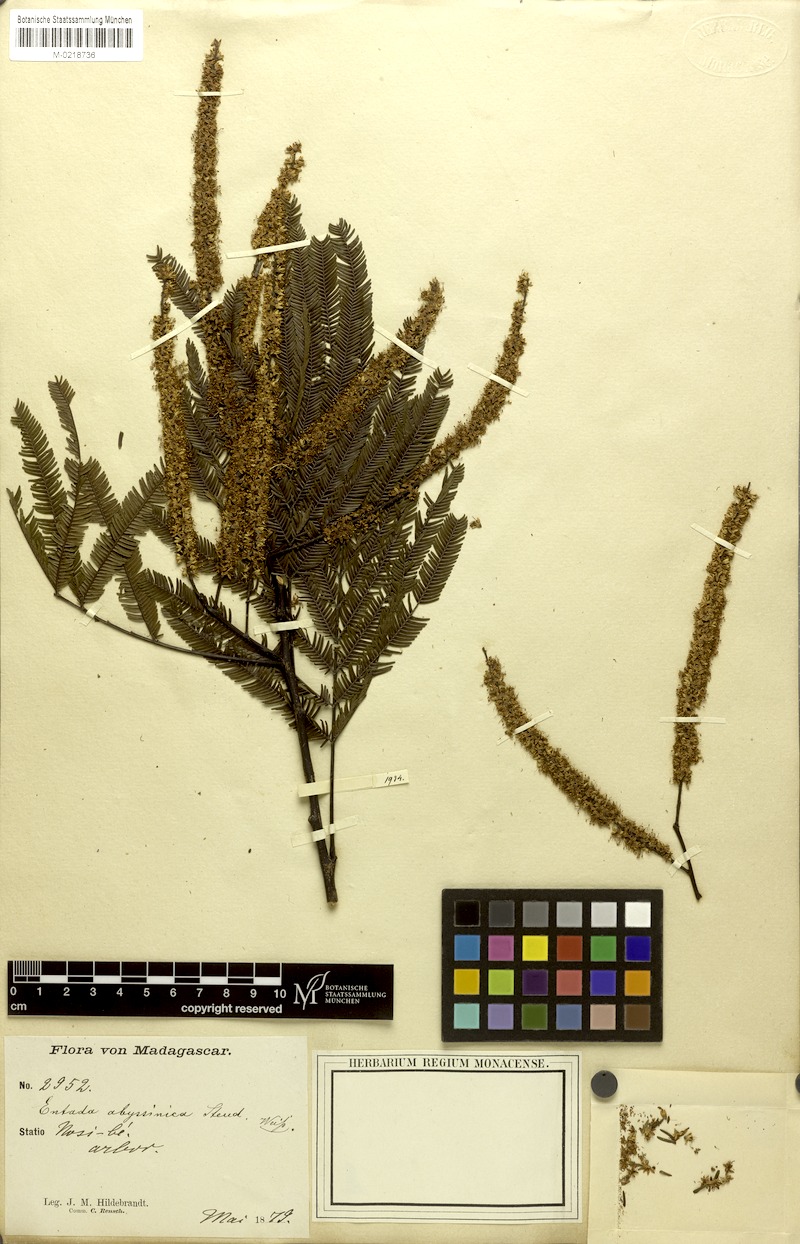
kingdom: Plantae
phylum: Tracheophyta
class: Magnoliopsida
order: Fabales
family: Fabaceae
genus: Entada
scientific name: Entada pervillei
